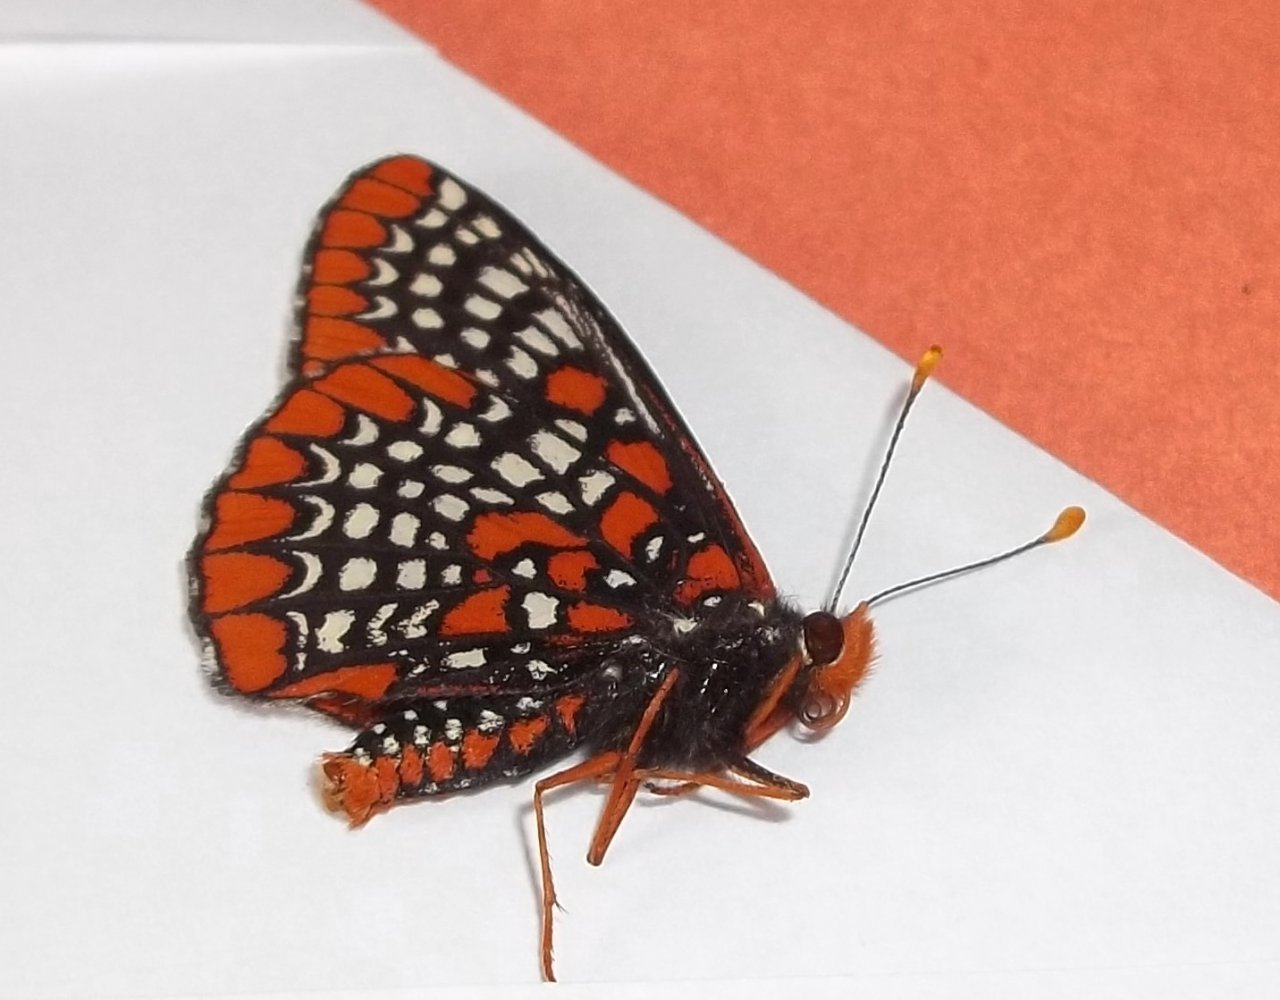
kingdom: Animalia
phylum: Arthropoda
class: Insecta
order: Lepidoptera
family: Nymphalidae
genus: Euphydryas
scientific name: Euphydryas phaeton
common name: Baltimore Checkerspot
